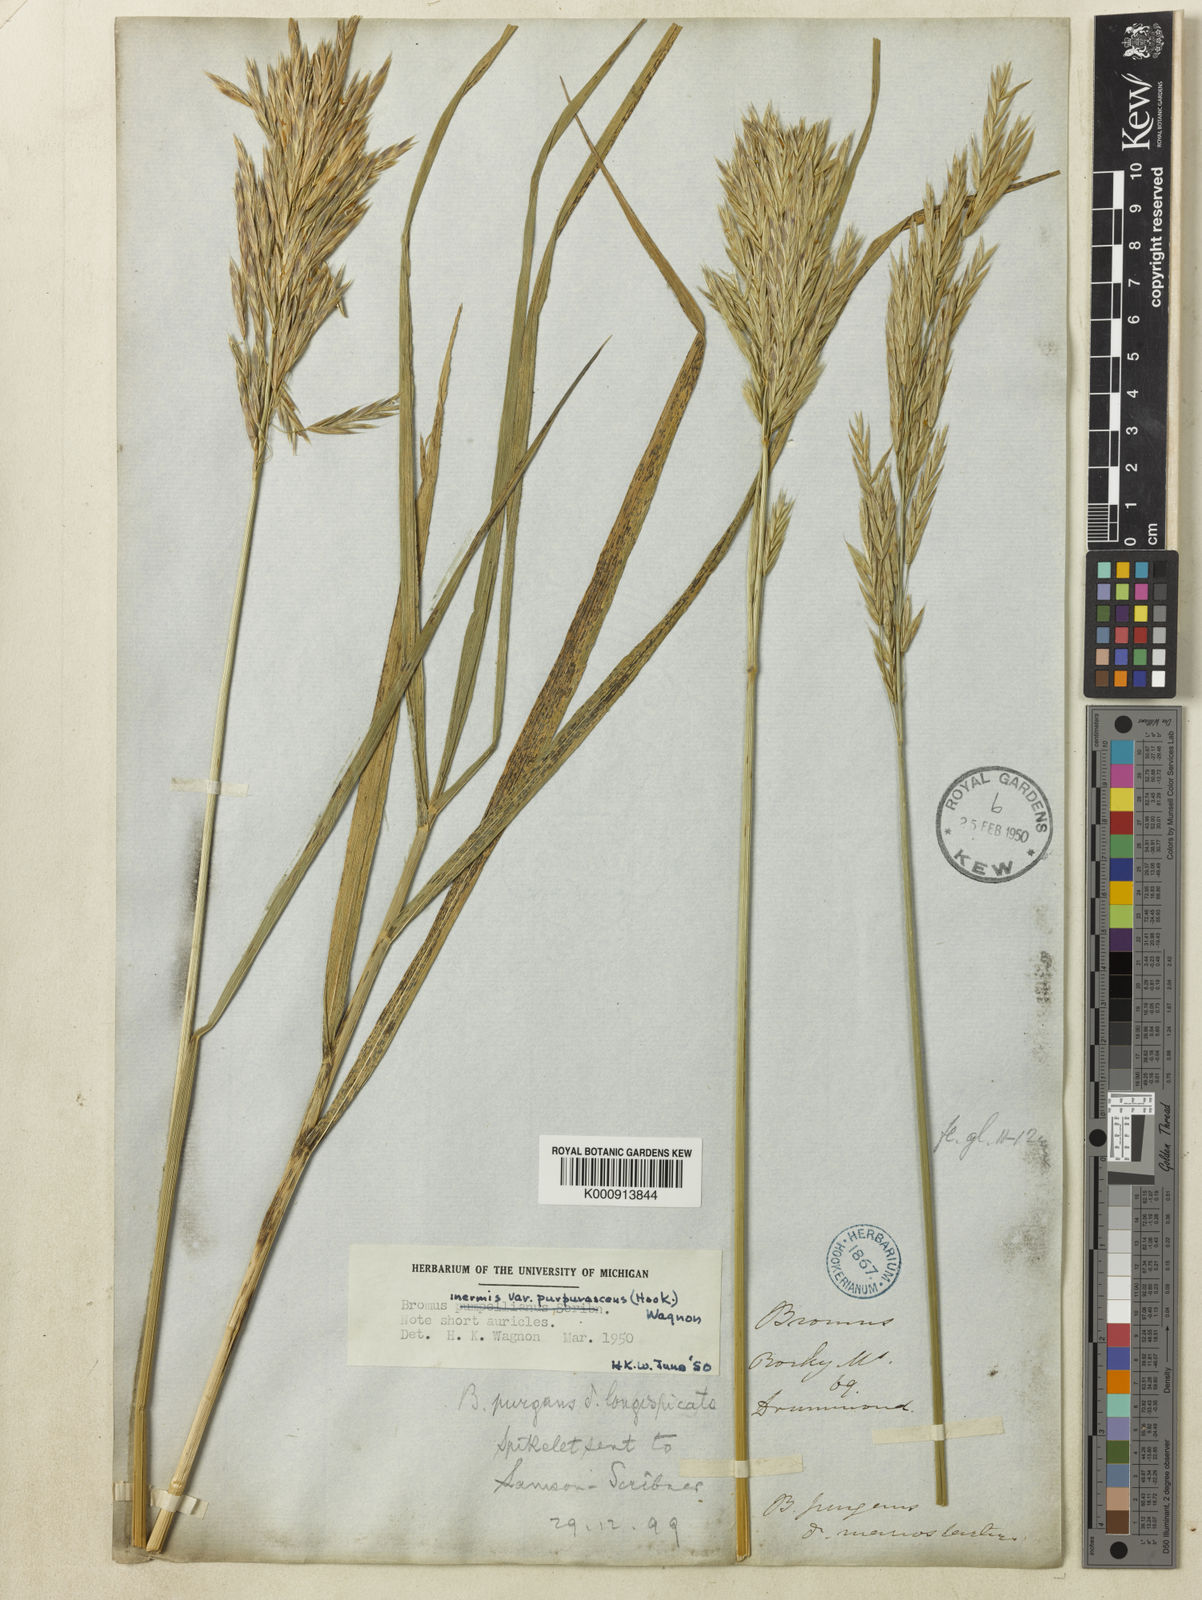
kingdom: Plantae
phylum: Tracheophyta
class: Liliopsida
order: Poales
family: Poaceae
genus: Bromus
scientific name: Bromus ciliatus
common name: Fringe brome
